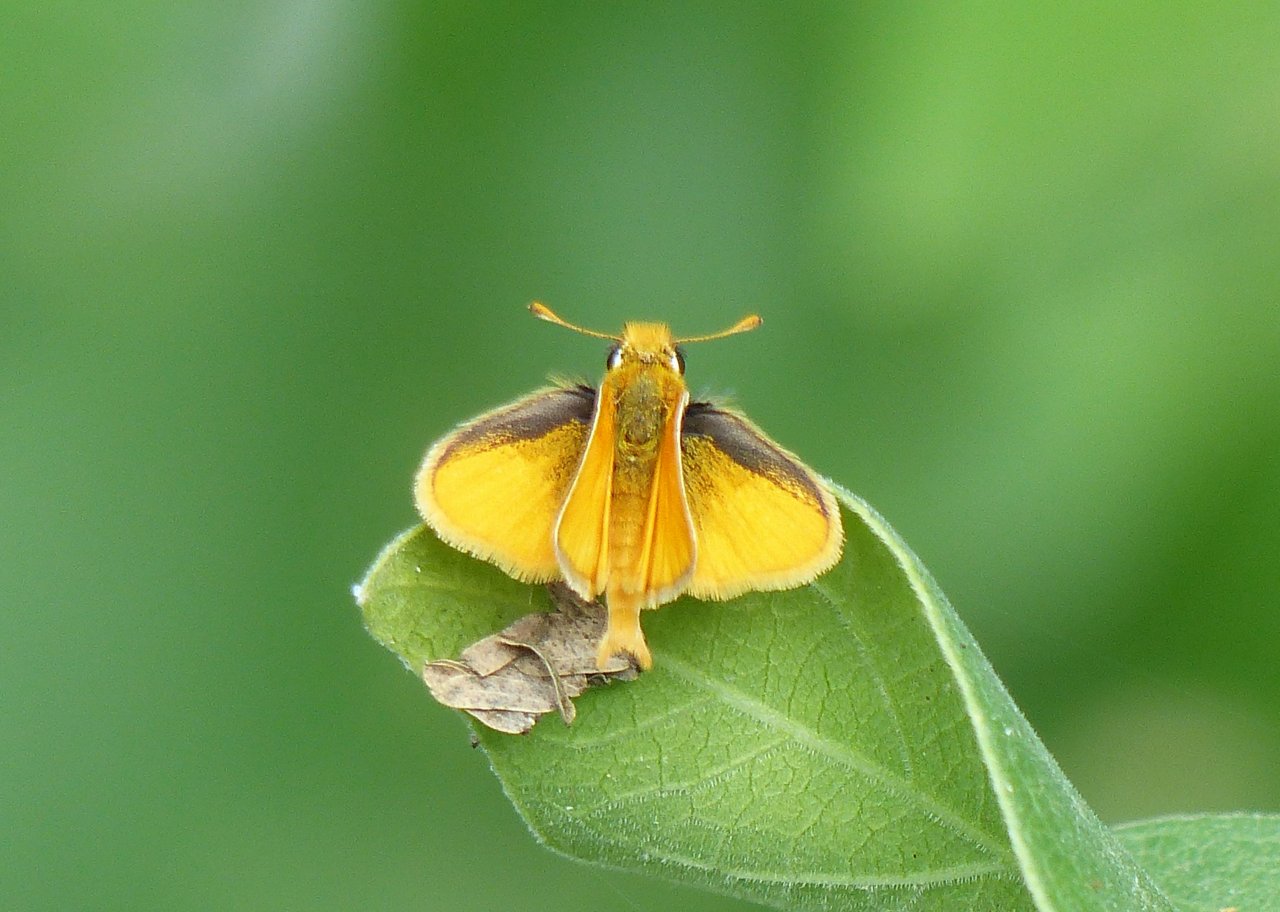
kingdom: Animalia
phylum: Arthropoda
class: Insecta
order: Lepidoptera
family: Hesperiidae
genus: Copaeodes
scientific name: Copaeodes minima
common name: Southern Skipperling
